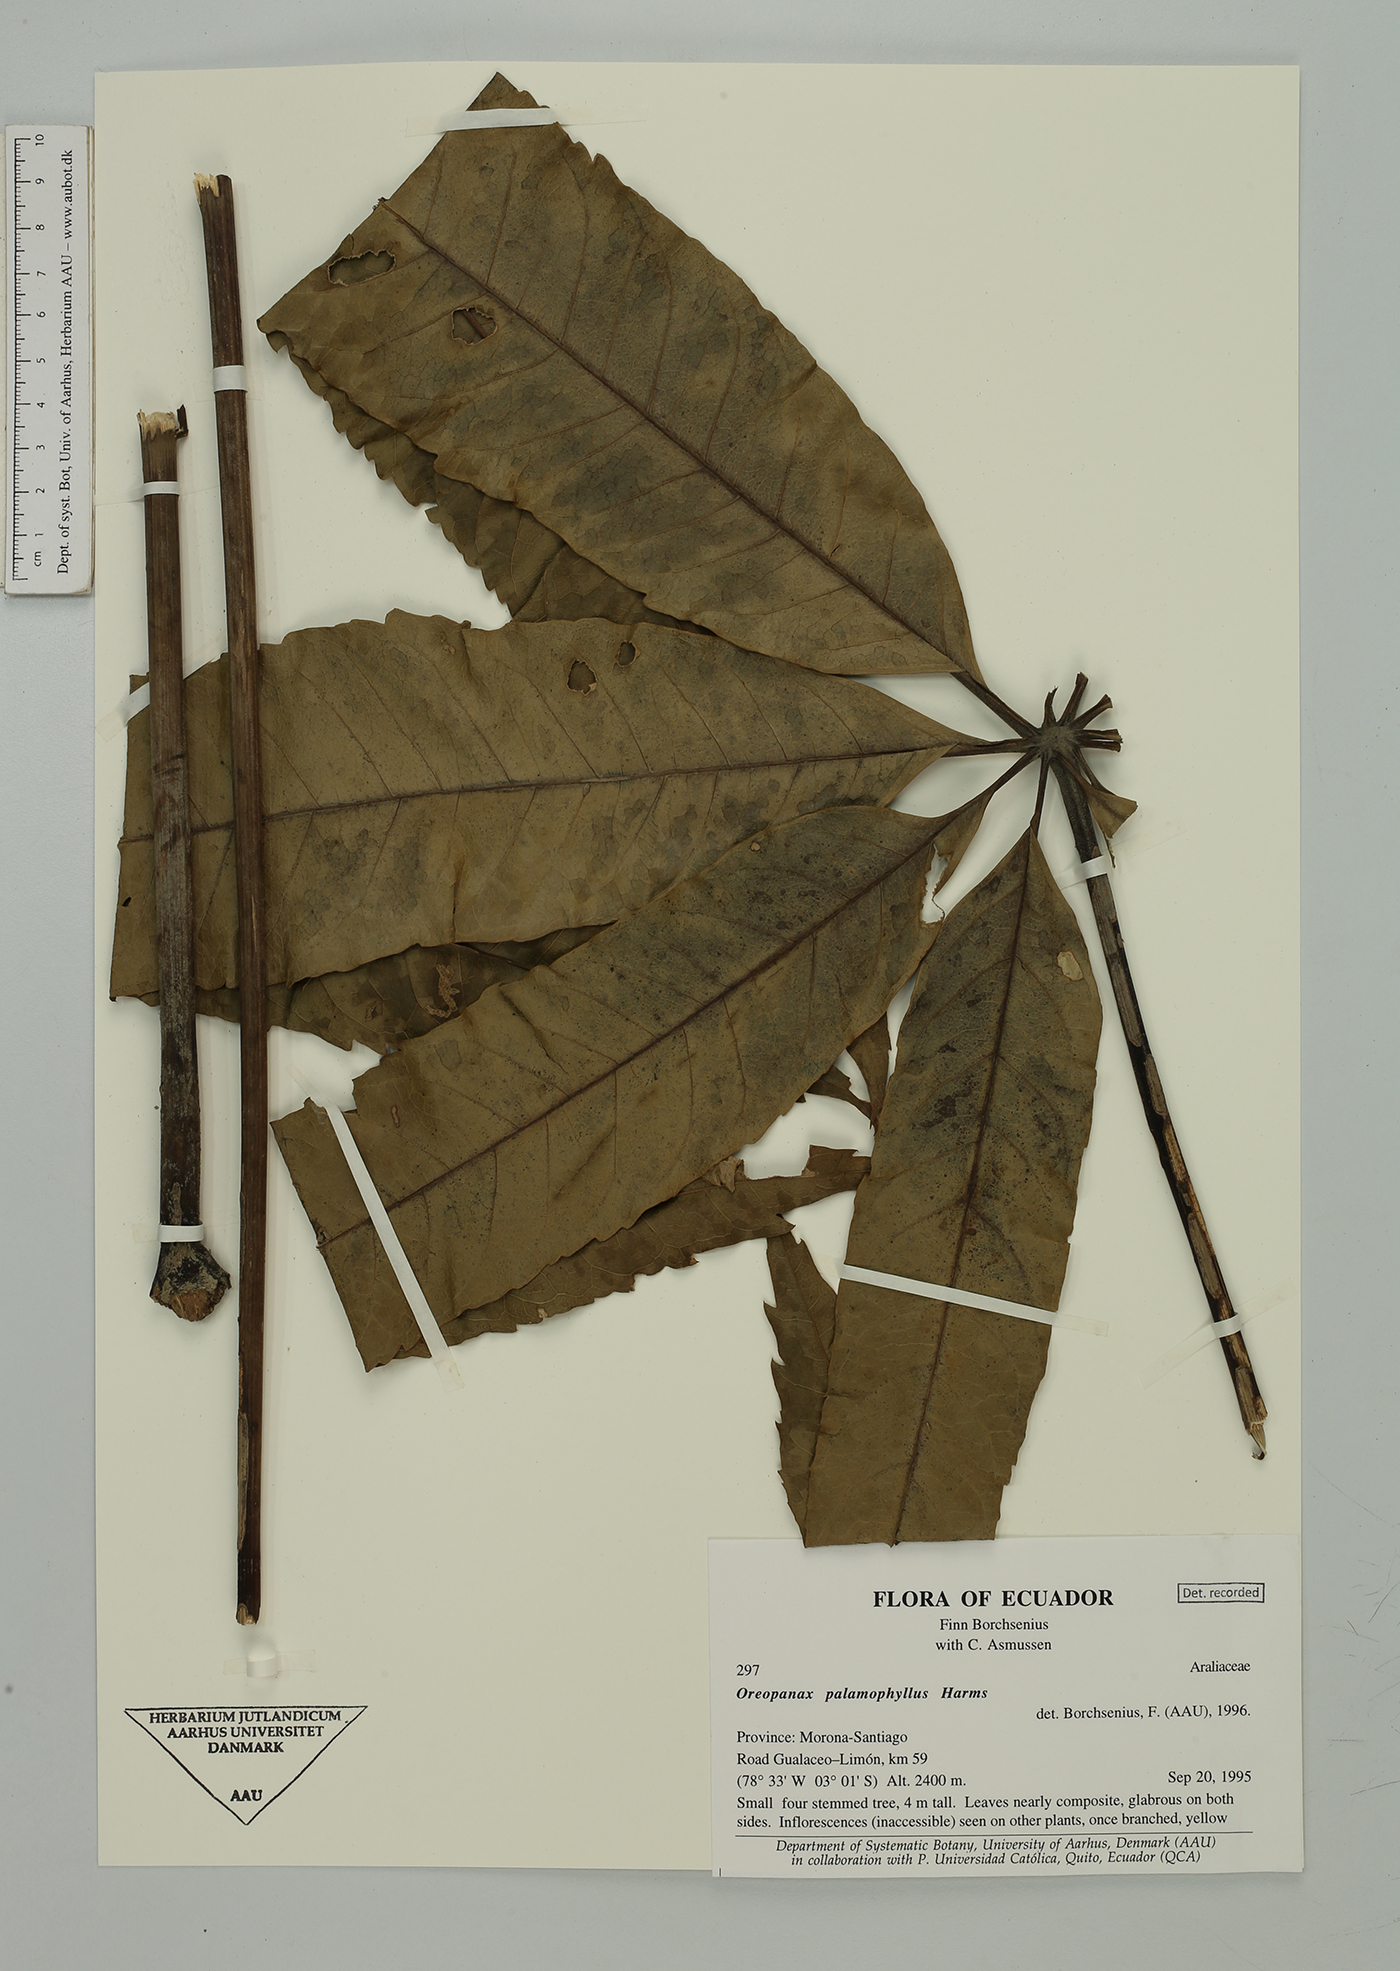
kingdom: Plantae
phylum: Tracheophyta
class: Magnoliopsida
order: Apiales
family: Araliaceae
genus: Oreopanax
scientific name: Oreopanax palamophyllus
